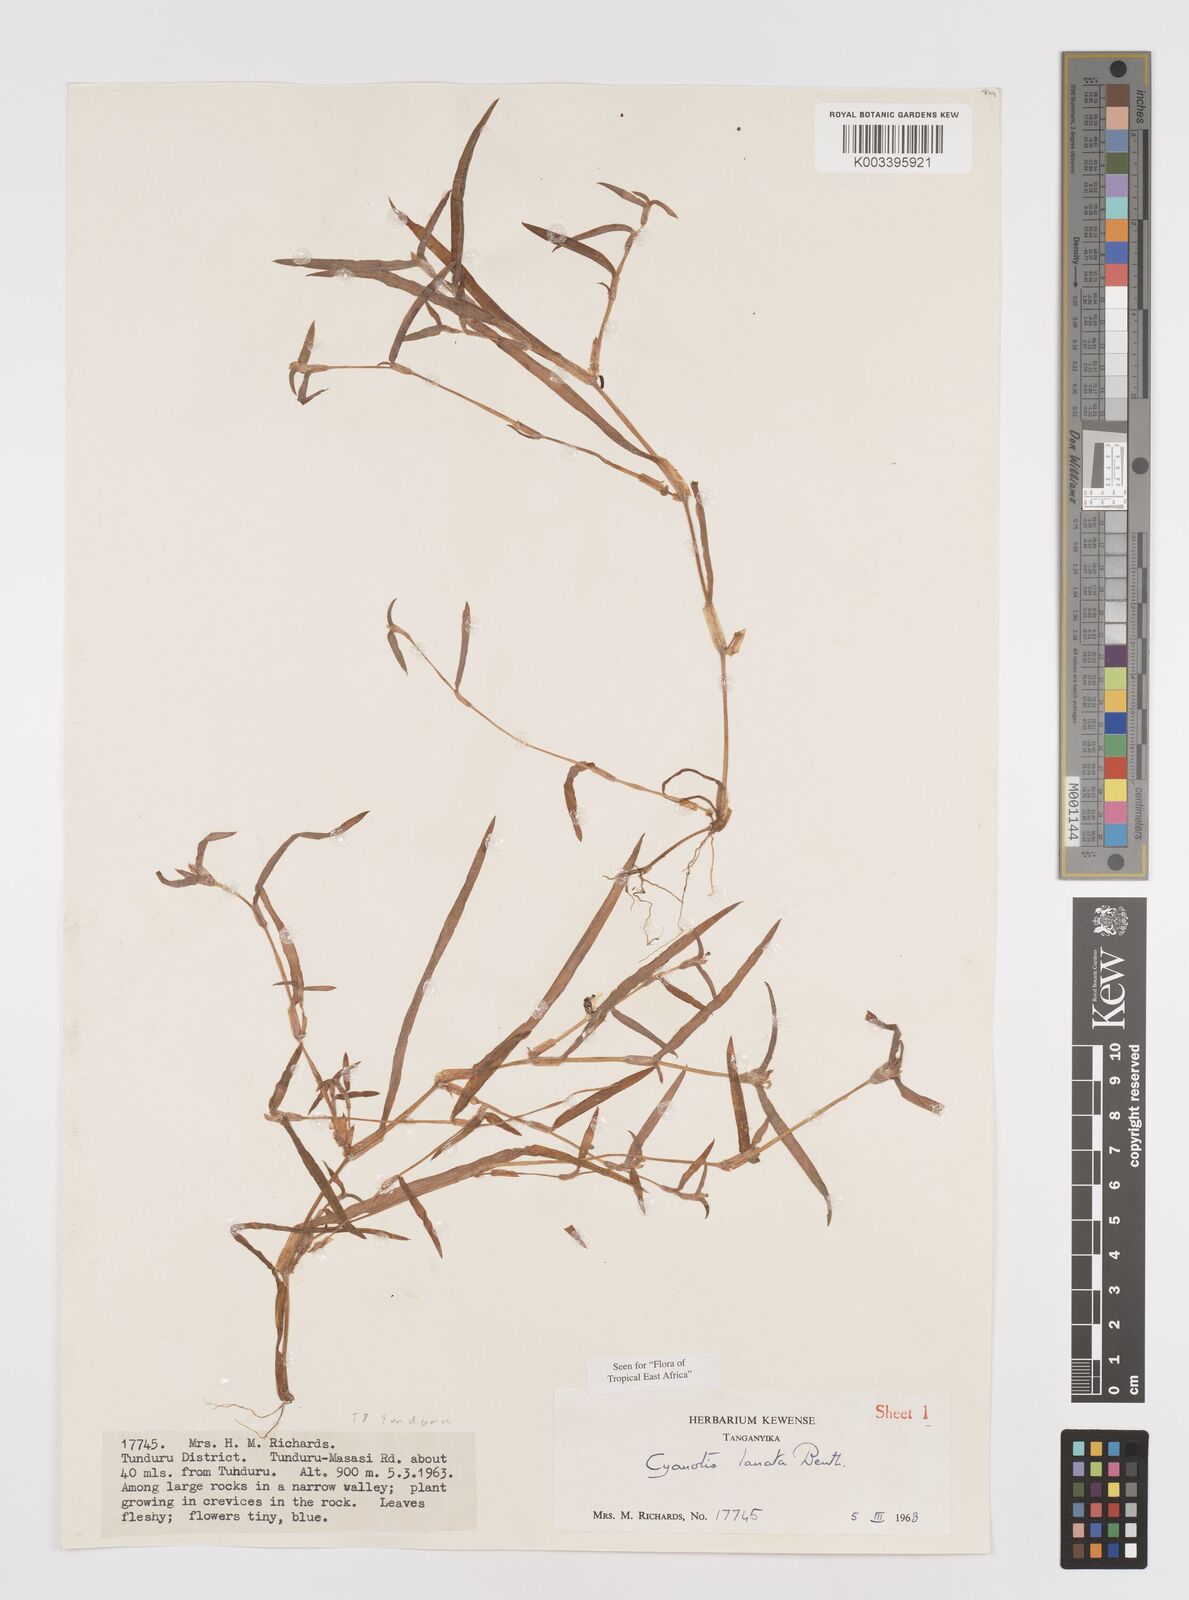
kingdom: Plantae
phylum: Tracheophyta
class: Liliopsida
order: Commelinales
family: Commelinaceae
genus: Cyanotis
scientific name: Cyanotis lanata
